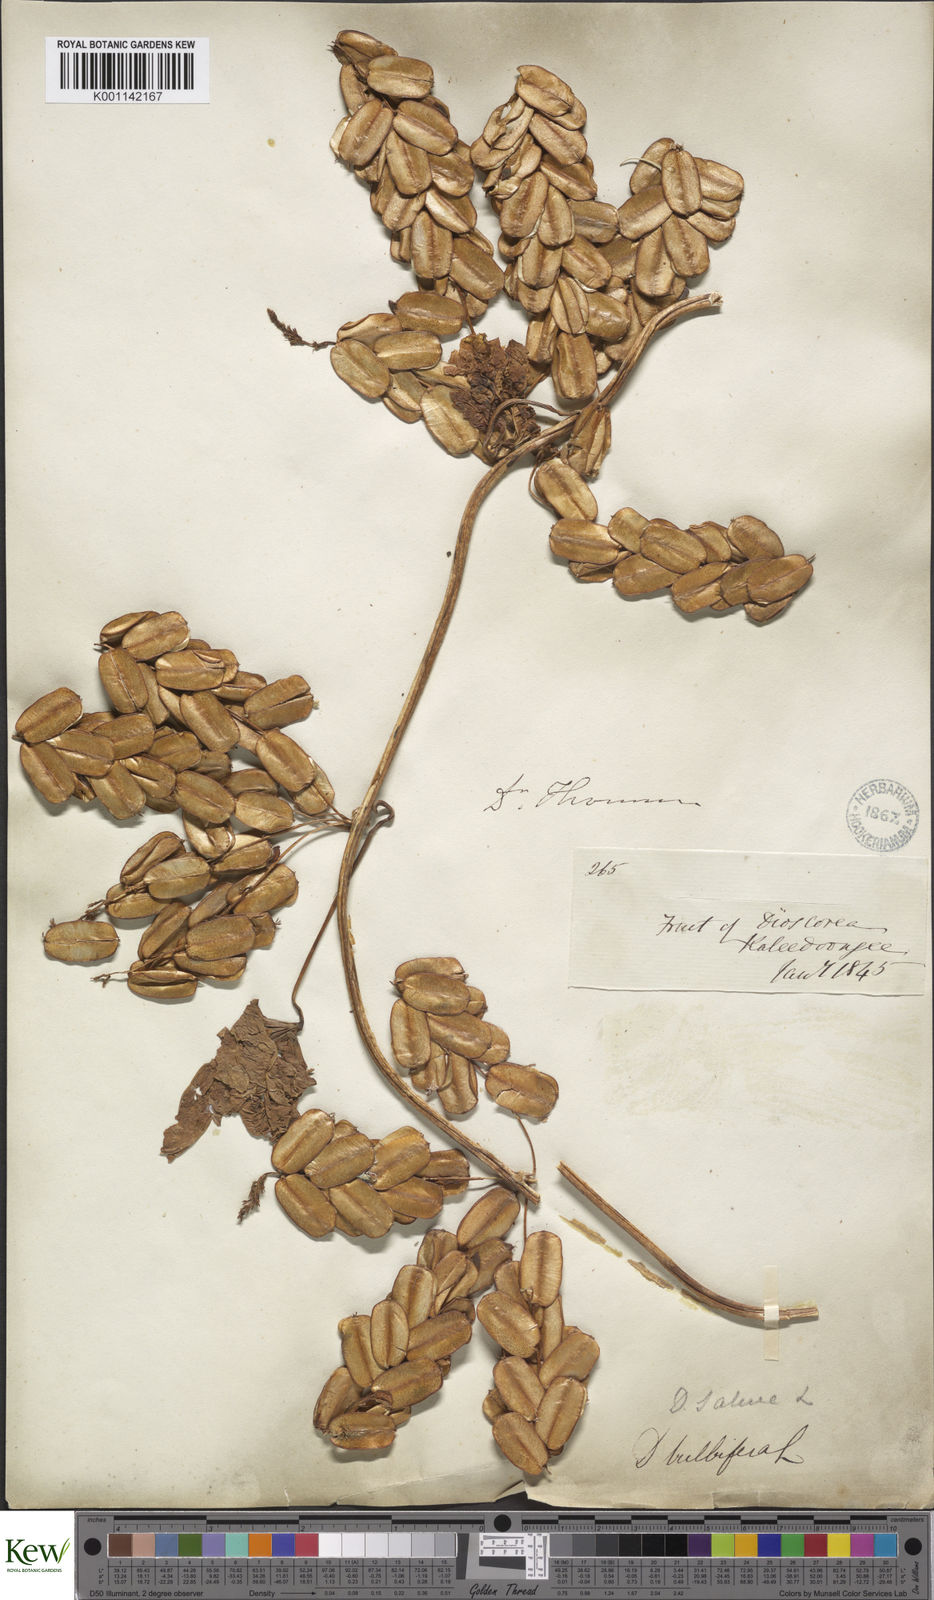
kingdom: Plantae
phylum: Tracheophyta
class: Liliopsida
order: Dioscoreales
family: Dioscoreaceae
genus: Dioscorea
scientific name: Dioscorea bulbifera
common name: Air yam
